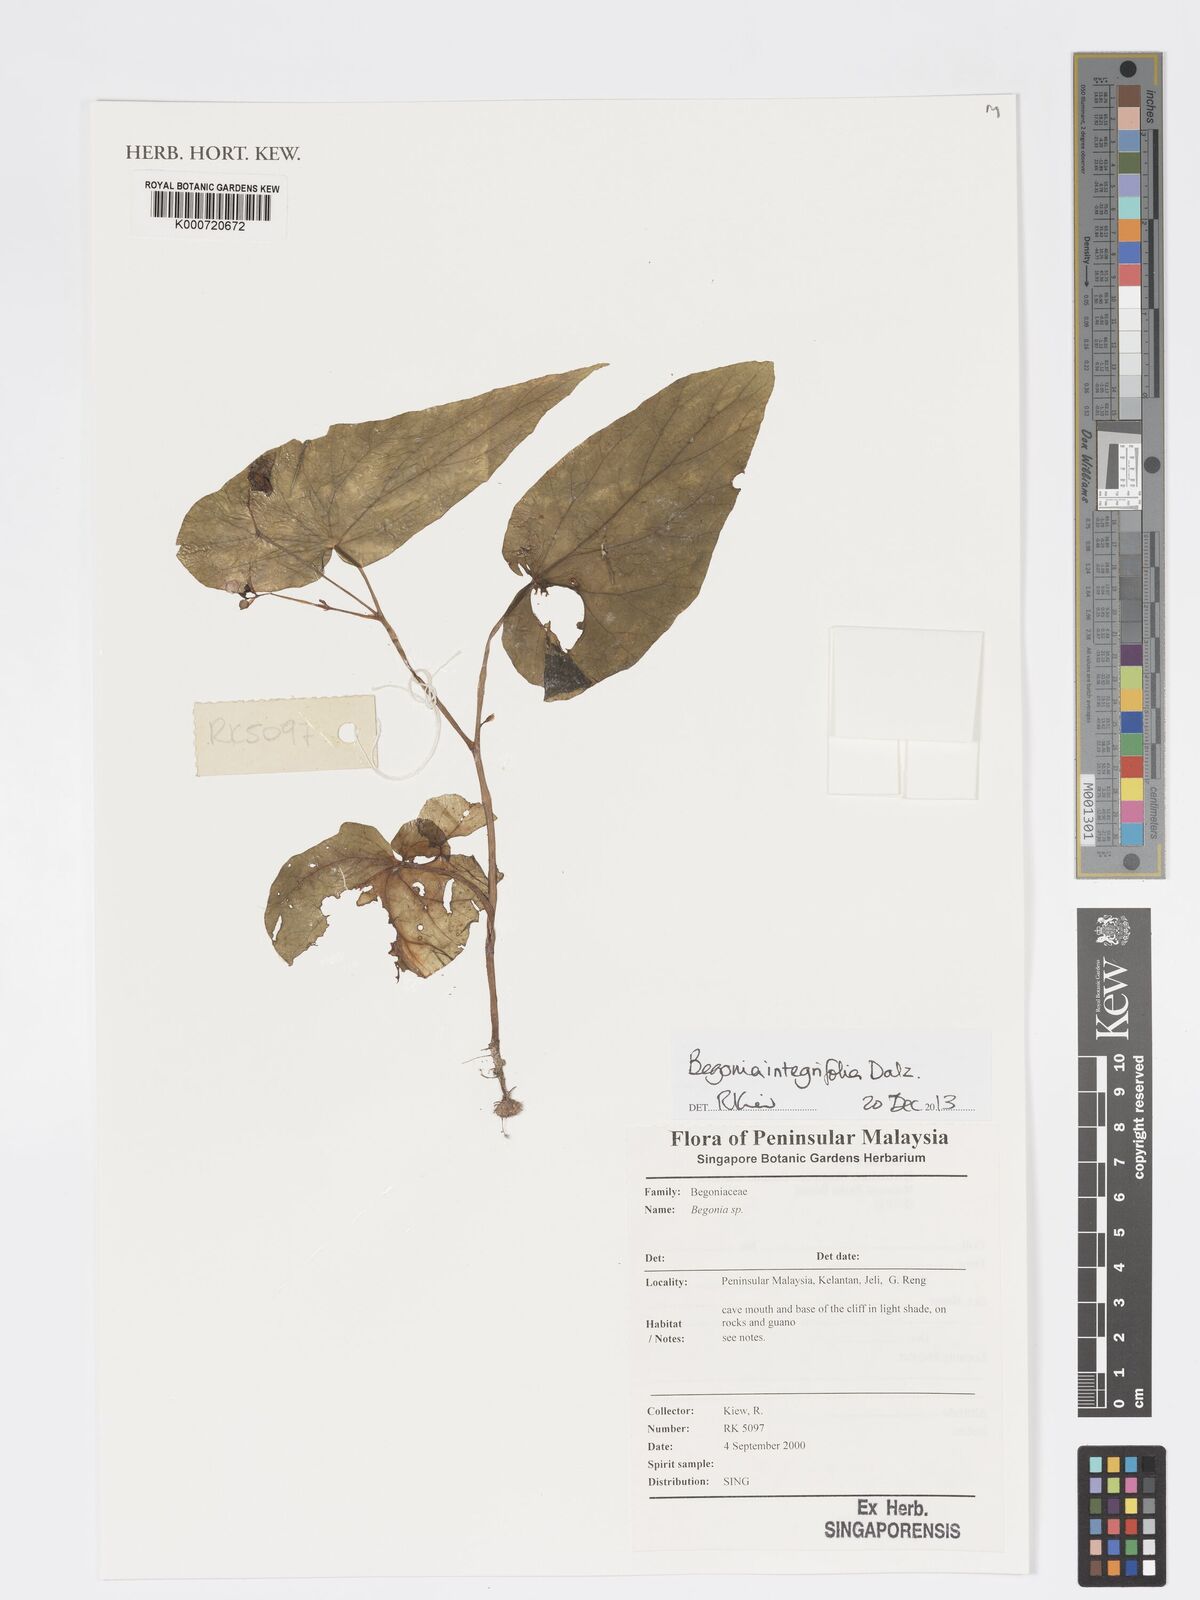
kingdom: Plantae
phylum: Tracheophyta
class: Magnoliopsida
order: Cucurbitales
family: Begoniaceae
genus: Begonia
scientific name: Begonia integrifolia
